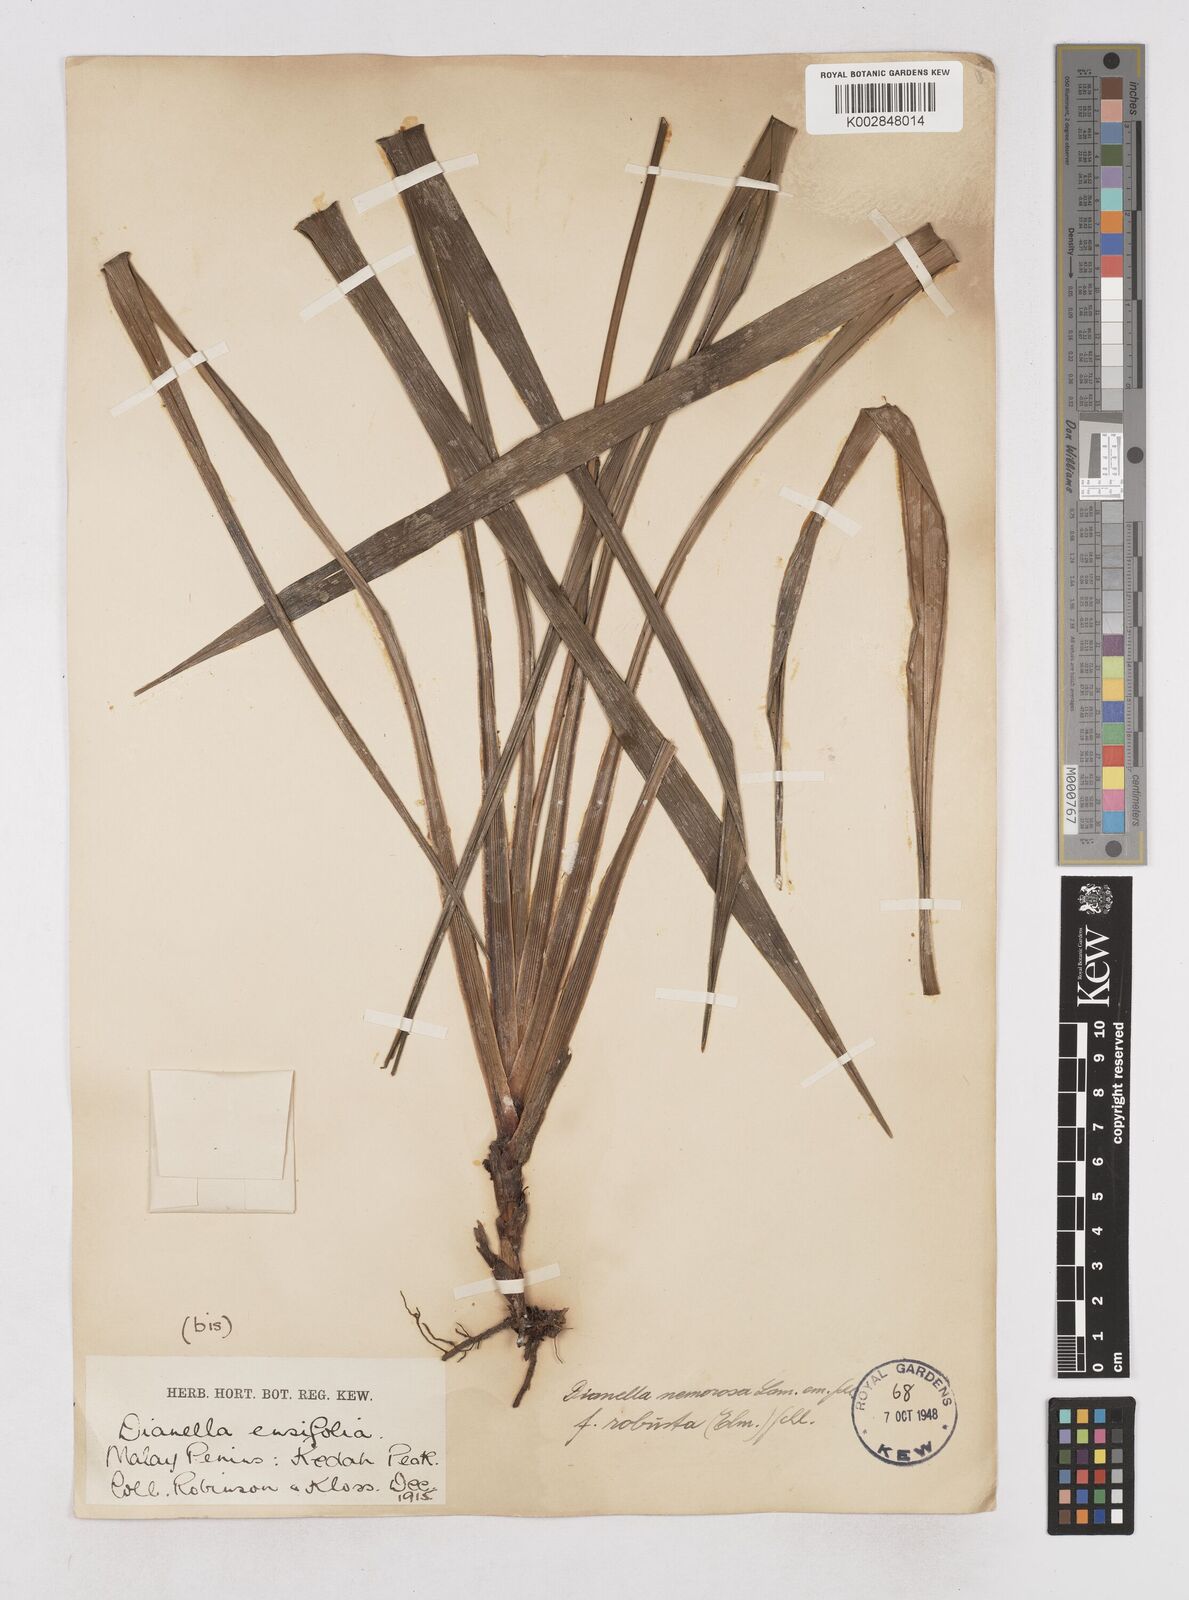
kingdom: Plantae
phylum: Tracheophyta
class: Liliopsida
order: Asparagales
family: Asphodelaceae
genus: Dianella
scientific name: Dianella ensifolia
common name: New zealand lilyplant
